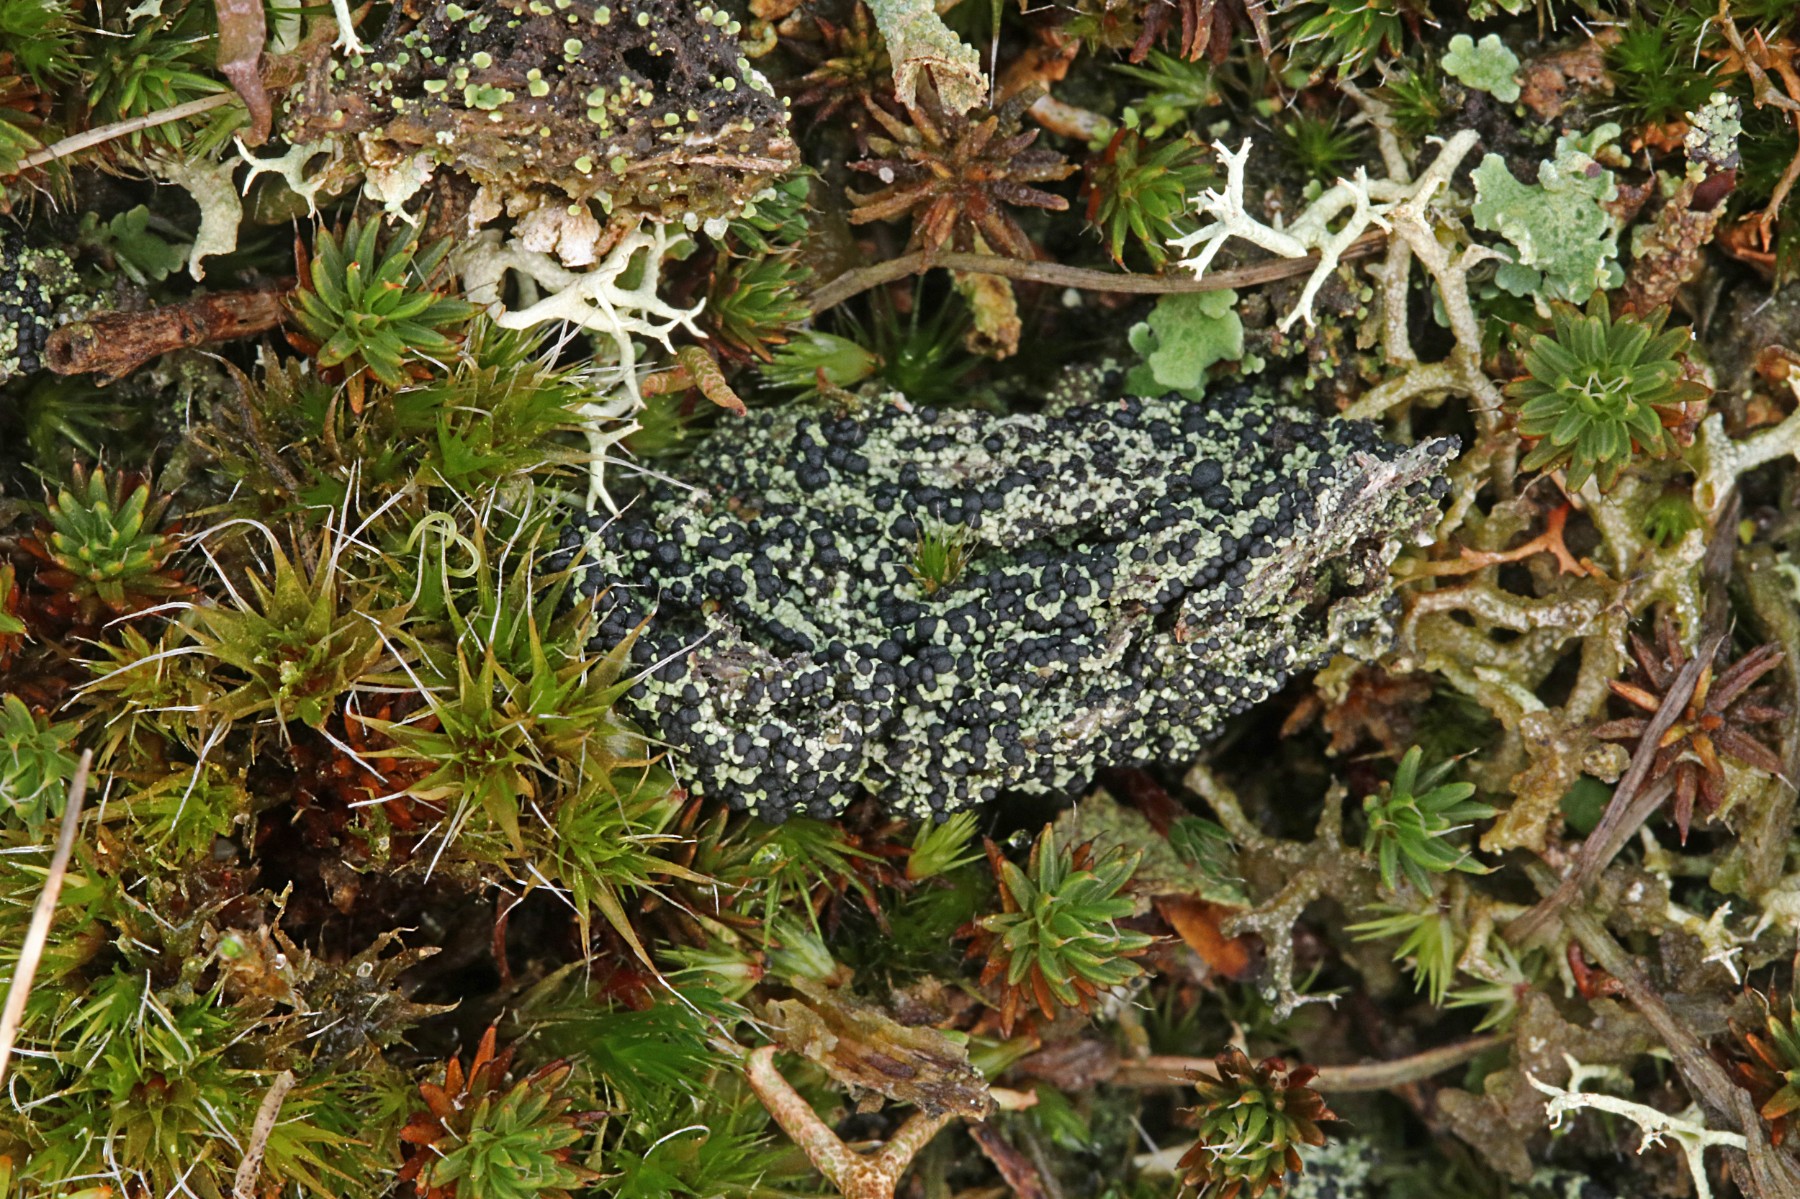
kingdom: Fungi
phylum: Ascomycota
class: Lecanoromycetes
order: Lecanorales
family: Byssolomataceae
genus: Micarea
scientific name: Micarea lignaria
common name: tørve-knaplav
